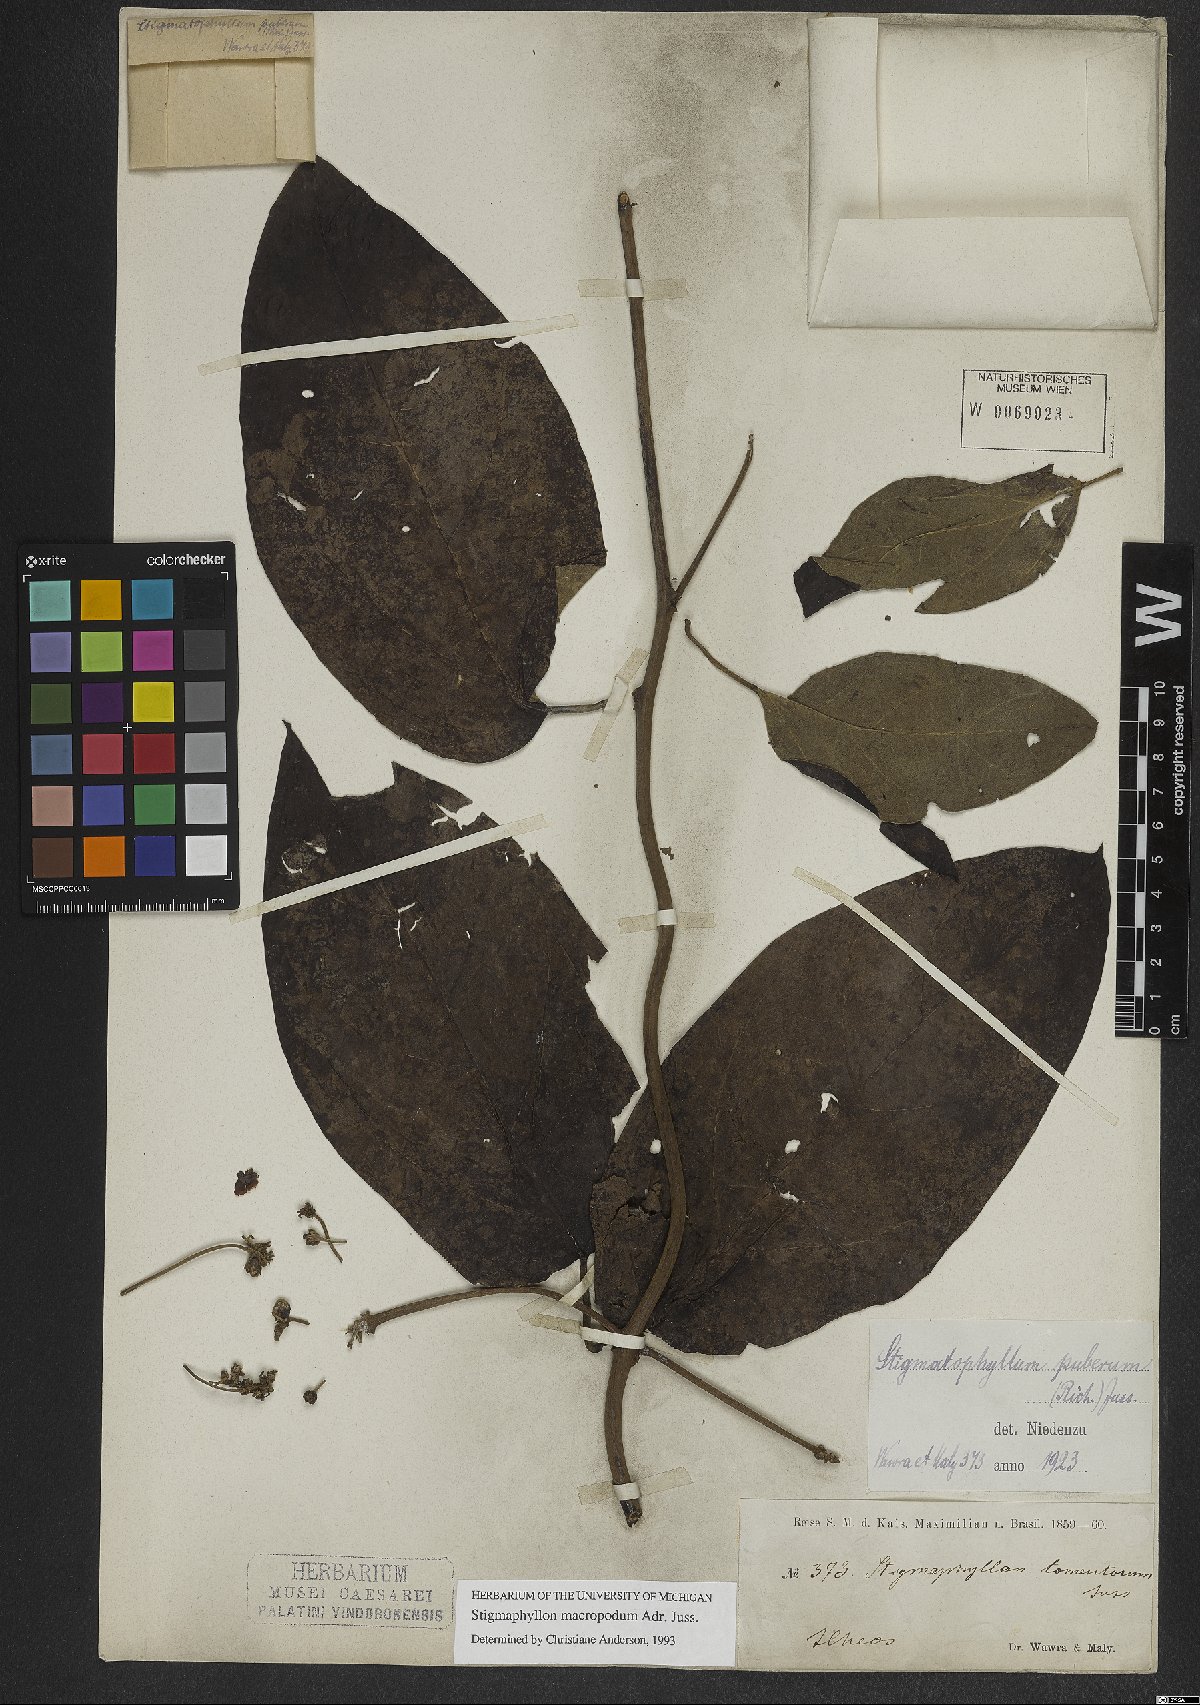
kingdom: Plantae
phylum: Tracheophyta
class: Magnoliopsida
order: Malpighiales
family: Malpighiaceae
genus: Stigmaphyllon
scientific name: Stigmaphyllon macropodum
